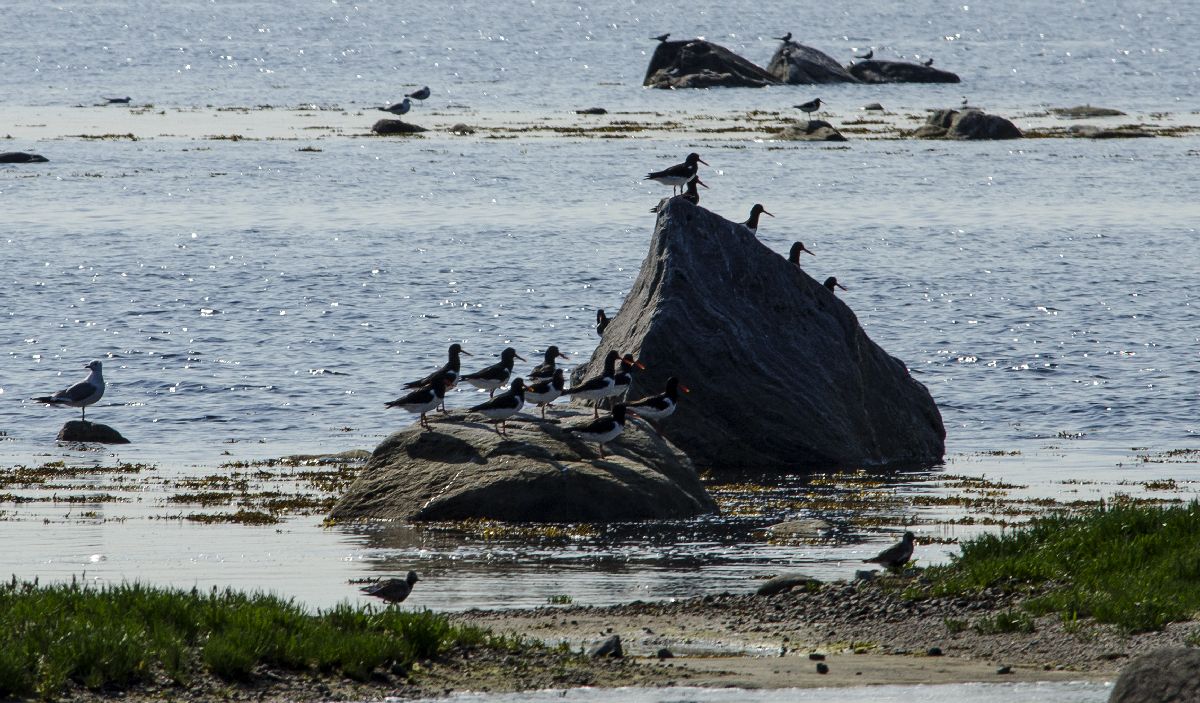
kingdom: Animalia
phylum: Chordata
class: Aves
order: Charadriiformes
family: Haematopodidae
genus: Haematopus
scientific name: Haematopus ostralegus
